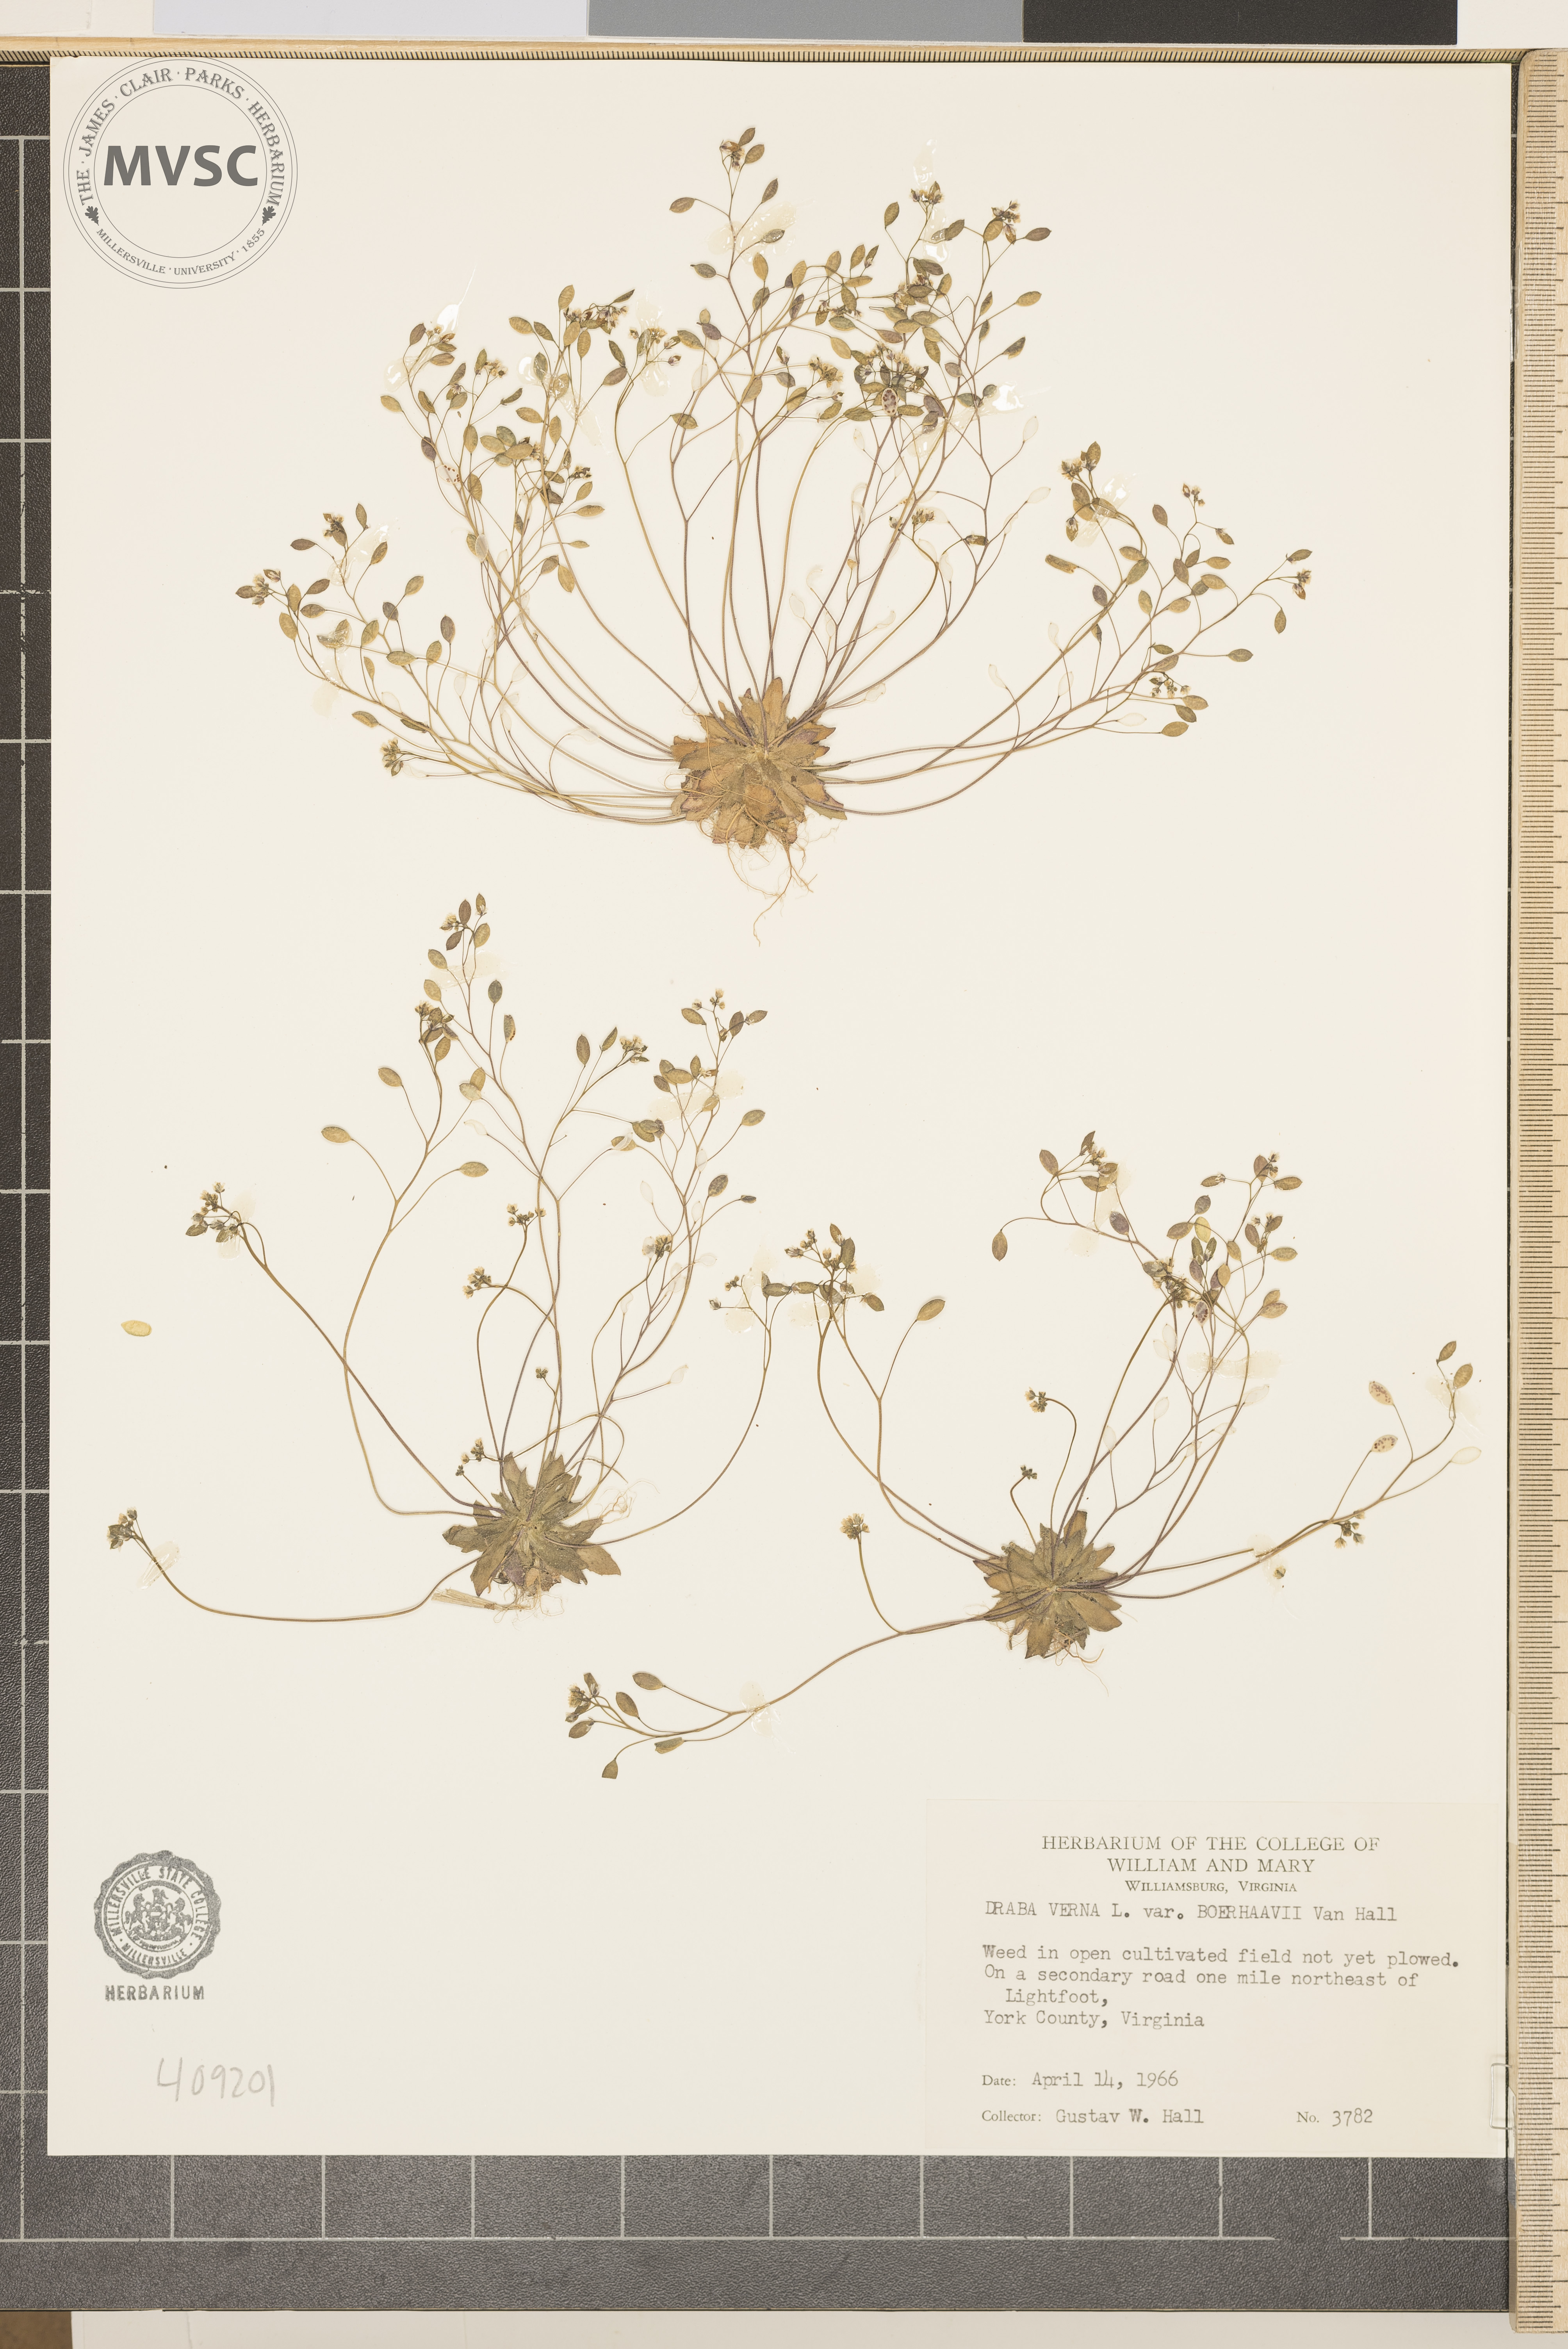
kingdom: Plantae
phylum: Tracheophyta
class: Magnoliopsida
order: Brassicales
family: Brassicaceae
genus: Draba
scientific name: Draba verna
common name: Spring draba
